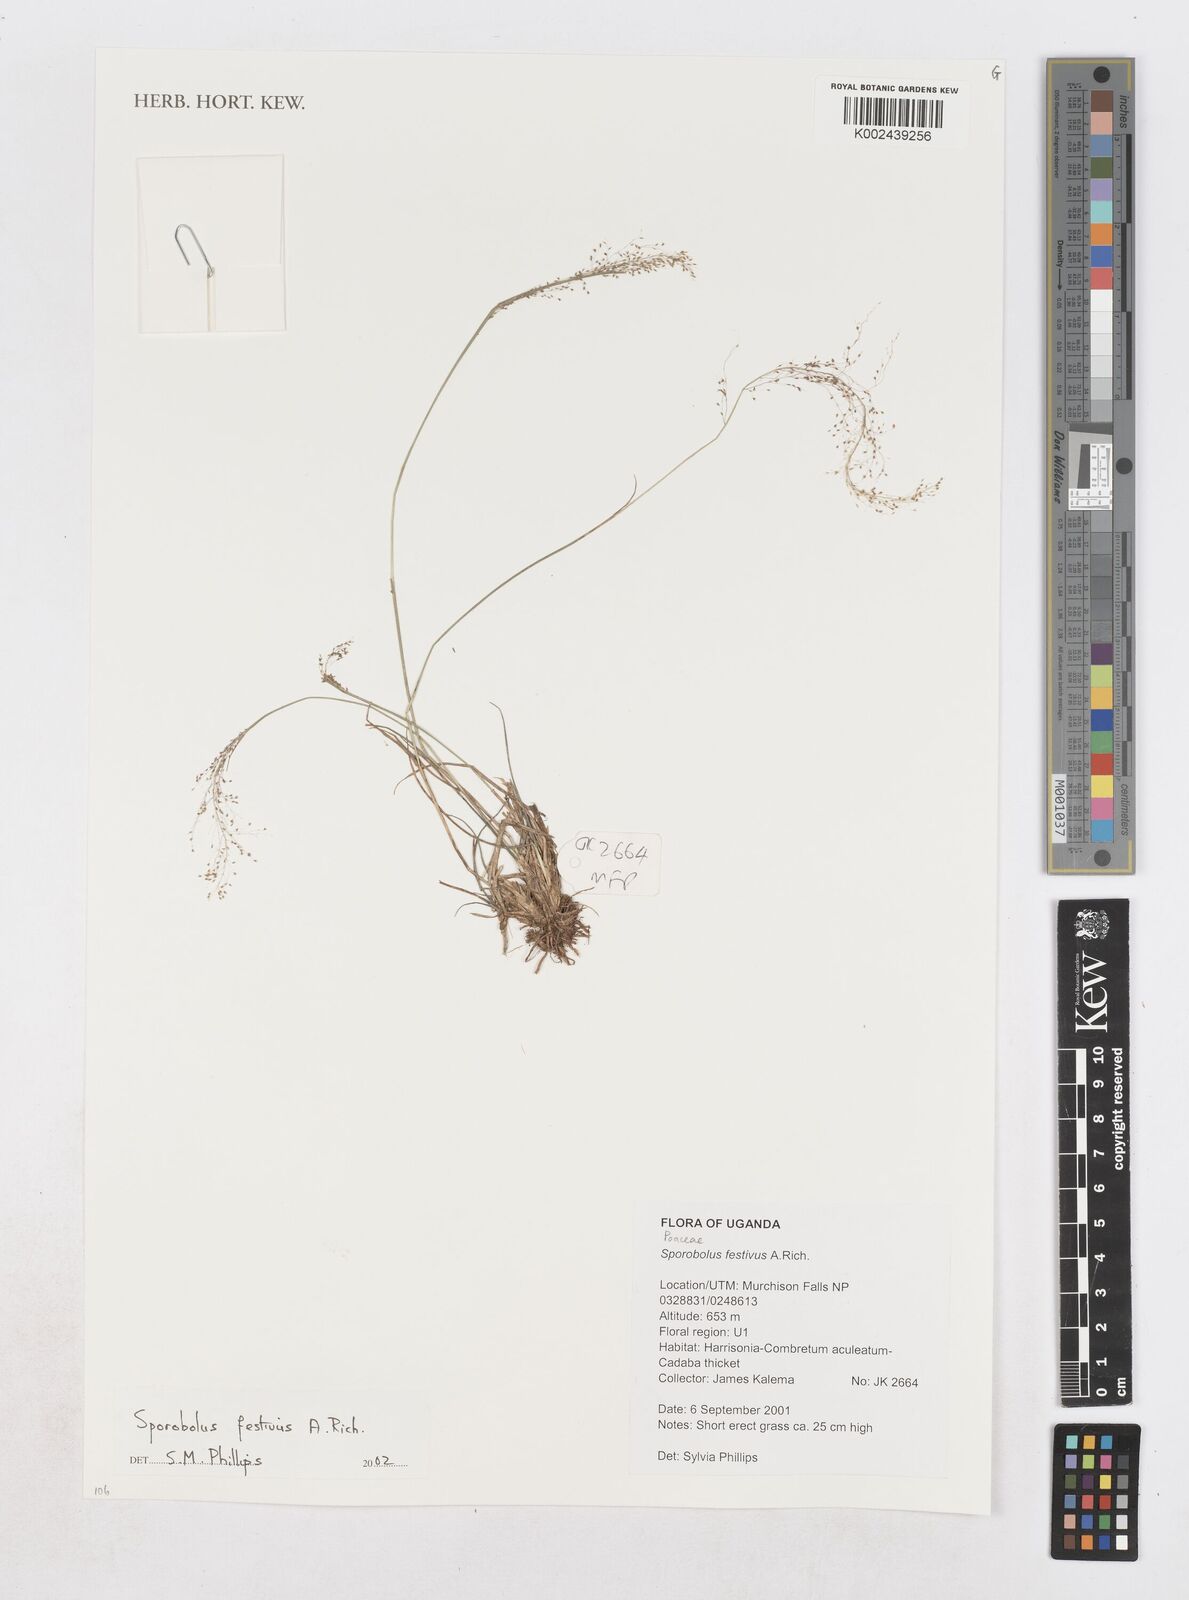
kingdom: Plantae
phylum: Tracheophyta
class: Liliopsida
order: Poales
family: Poaceae
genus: Sporobolus
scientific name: Sporobolus festivus
